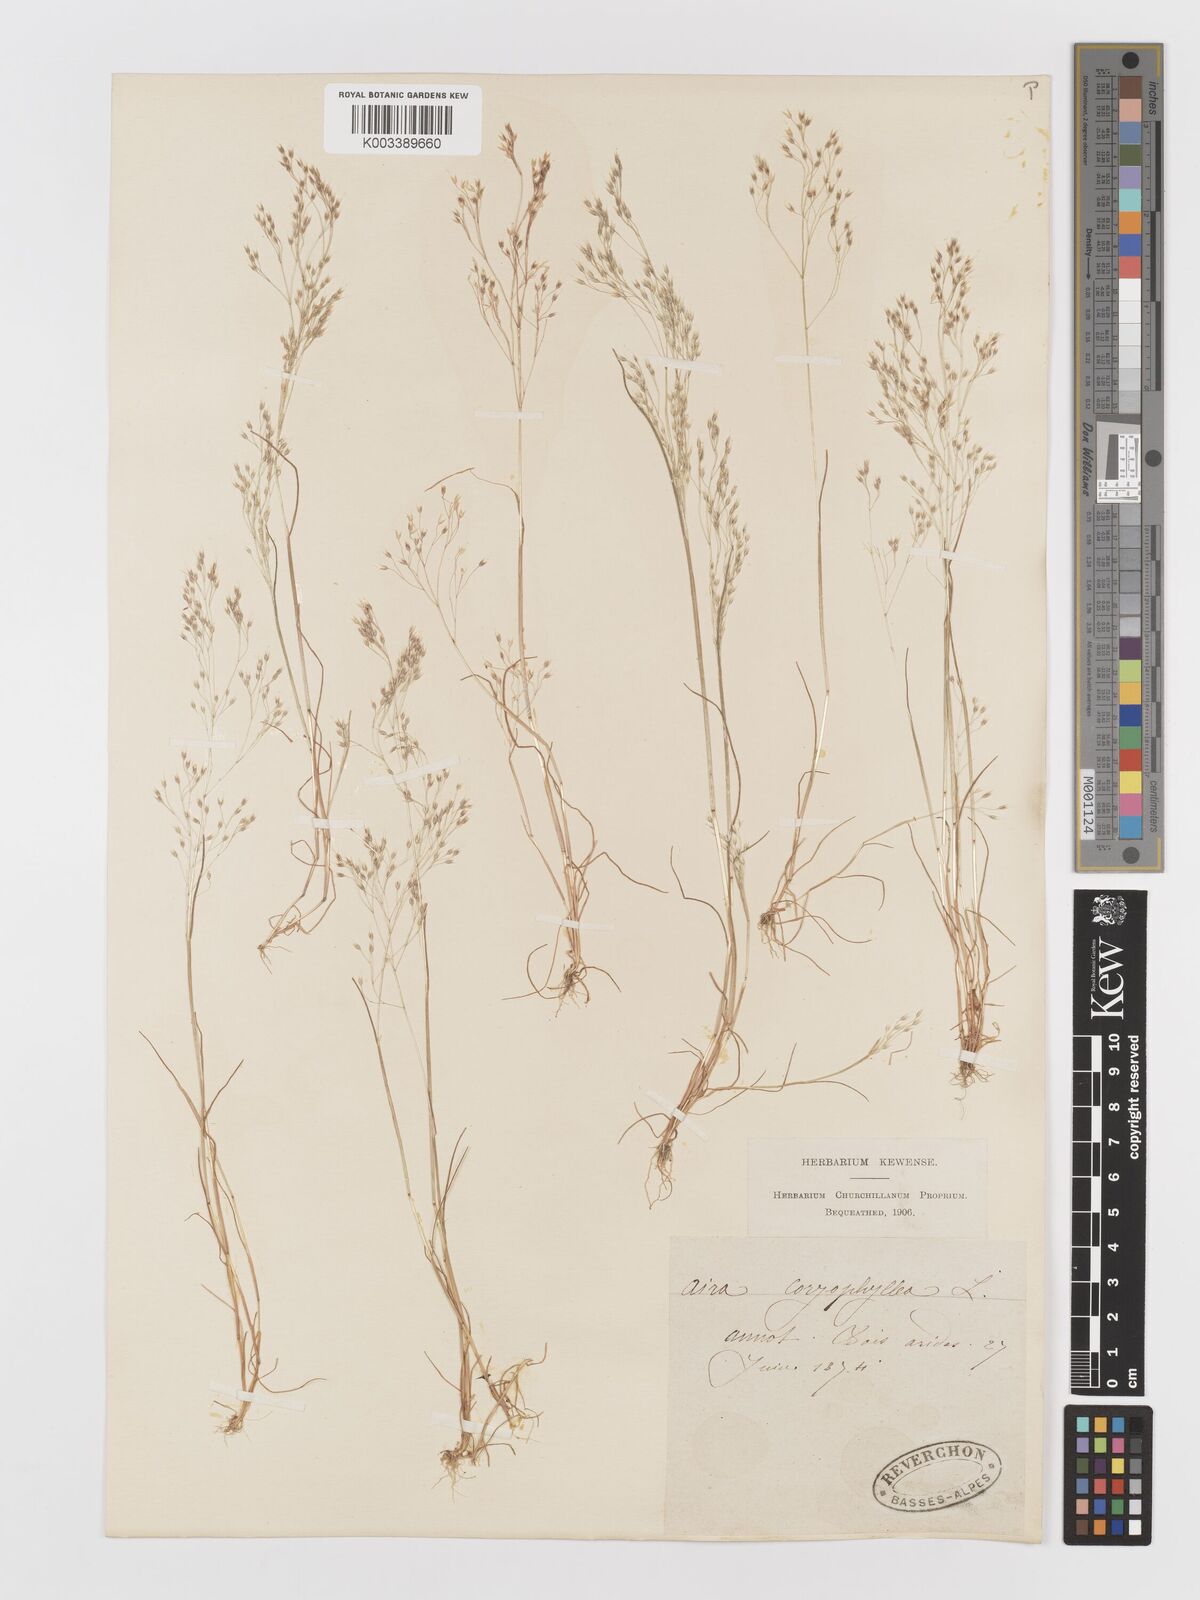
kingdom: Plantae
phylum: Tracheophyta
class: Liliopsida
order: Poales
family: Poaceae
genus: Aira
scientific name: Aira caryophyllea
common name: Silver hairgrass
